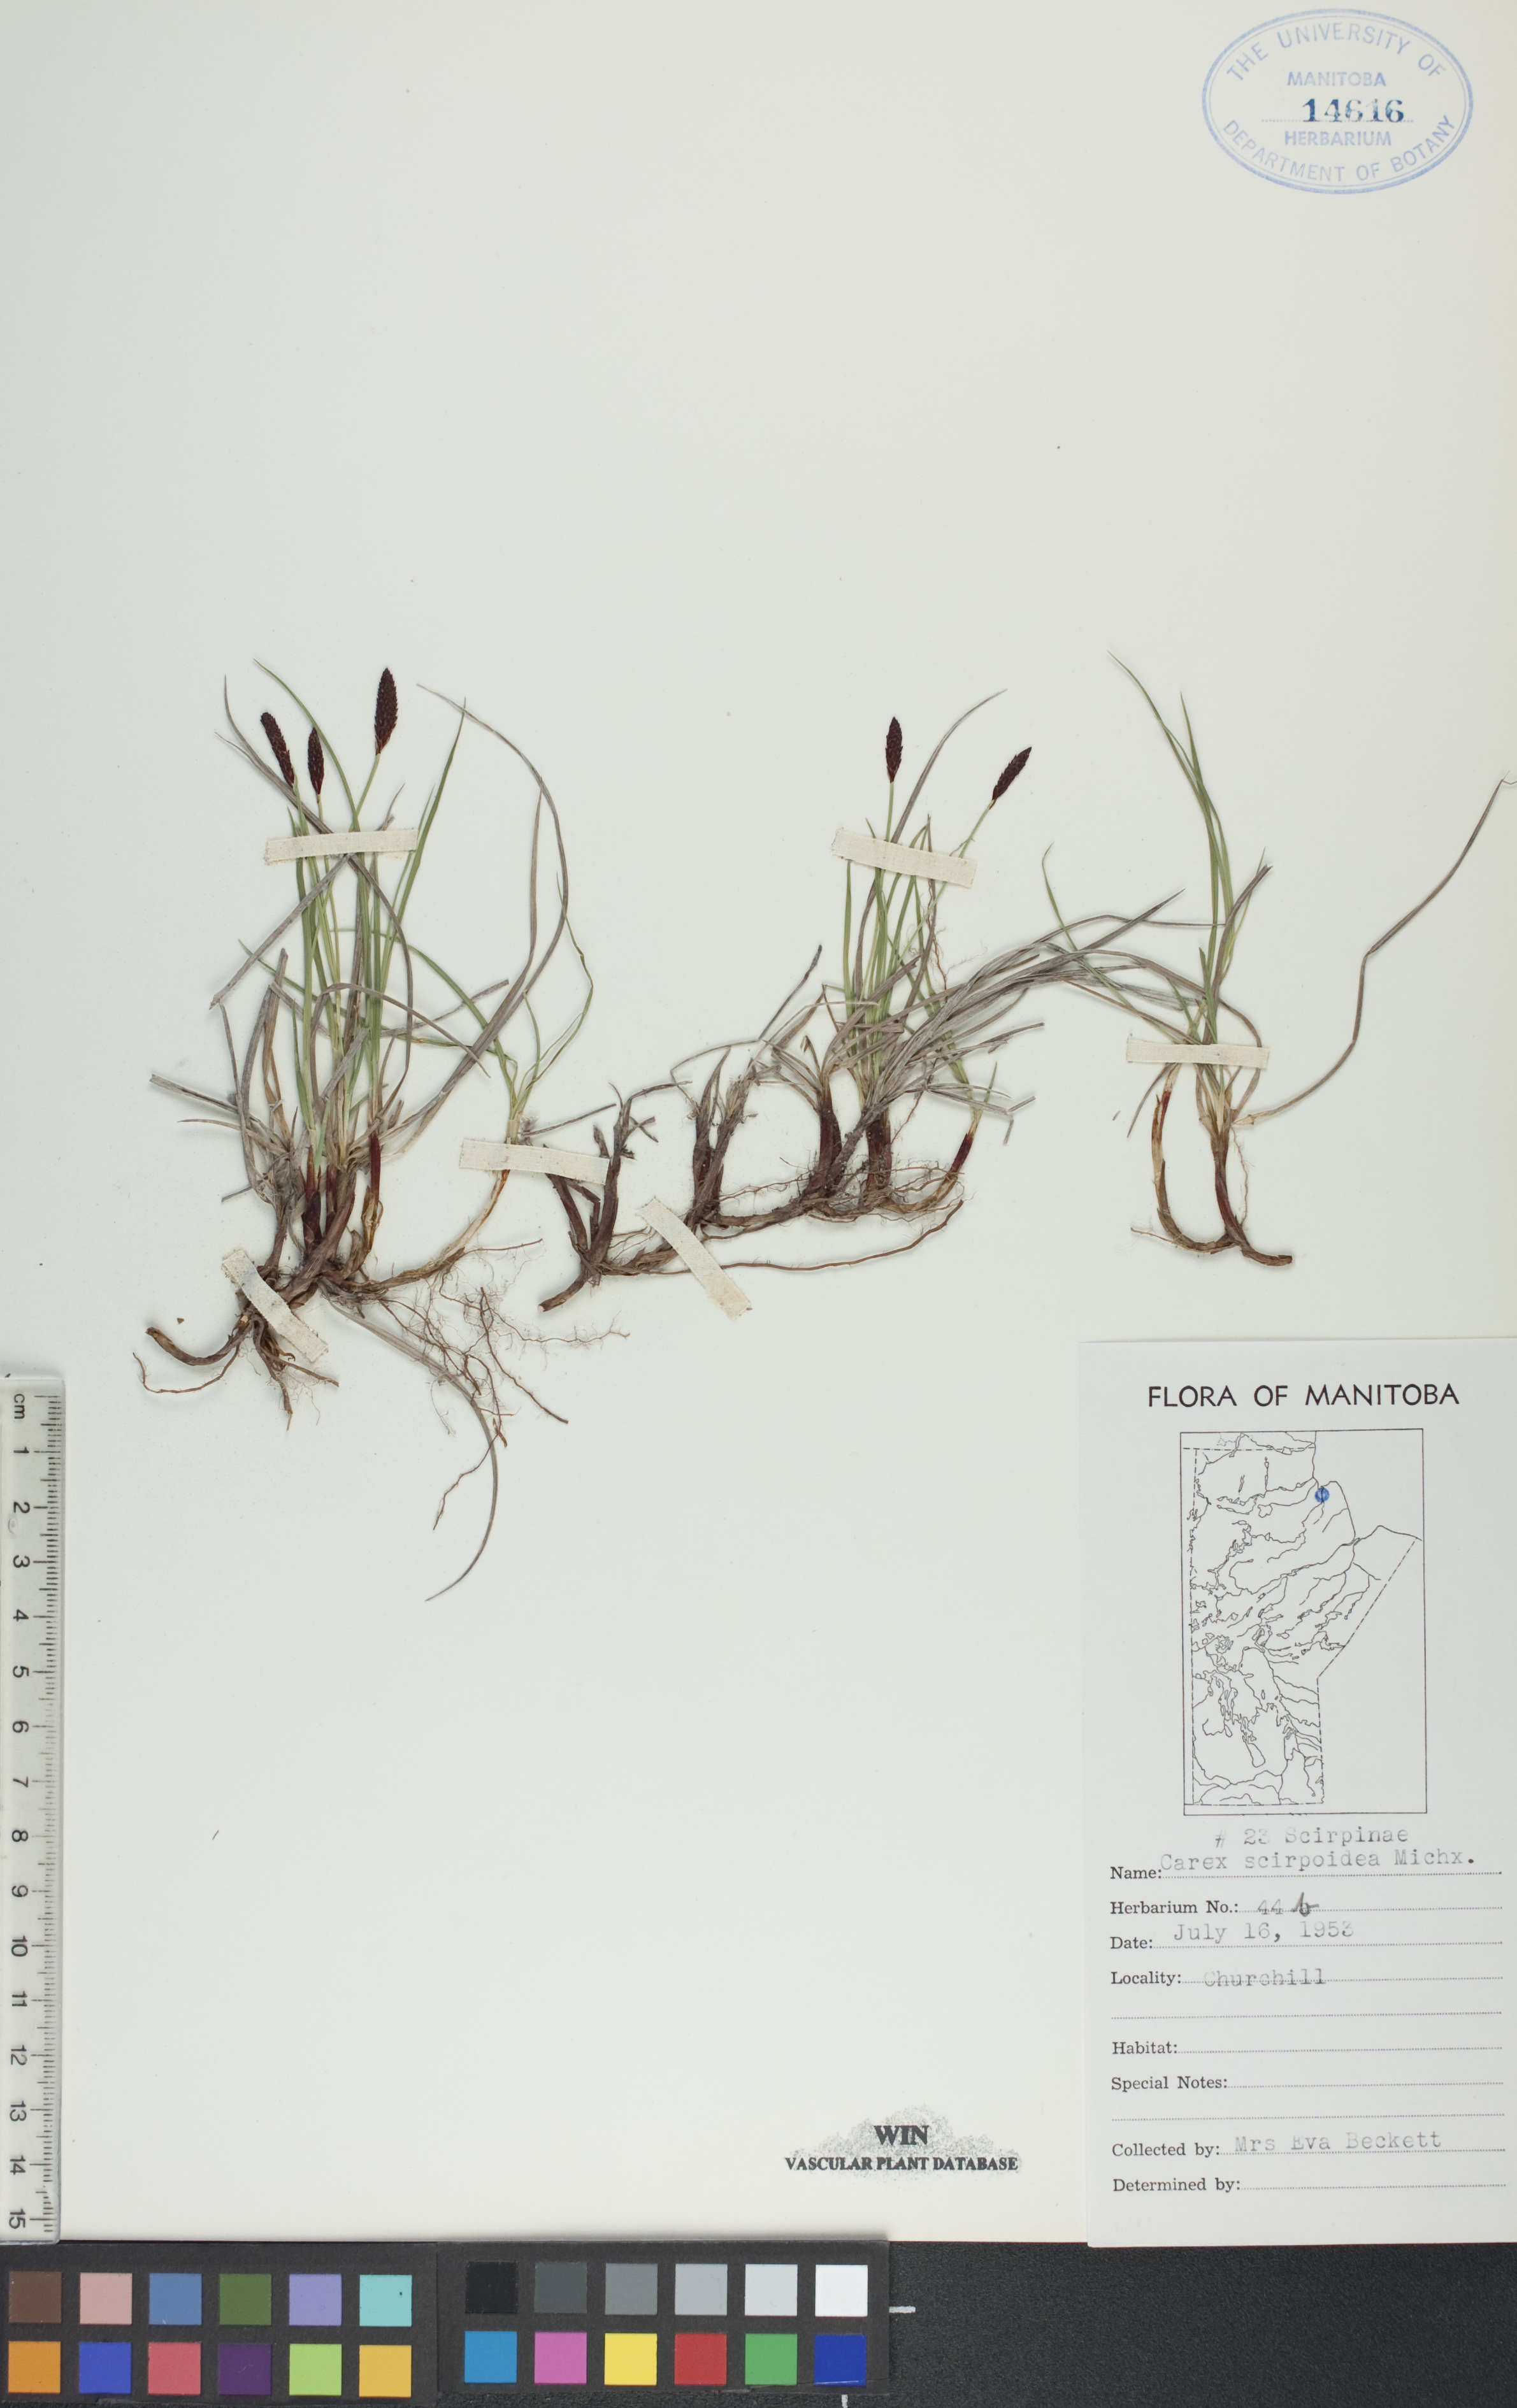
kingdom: Plantae
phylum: Tracheophyta
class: Liliopsida
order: Poales
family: Cyperaceae
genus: Carex
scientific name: Carex scirpoidea
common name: Canada single-spike sedge
